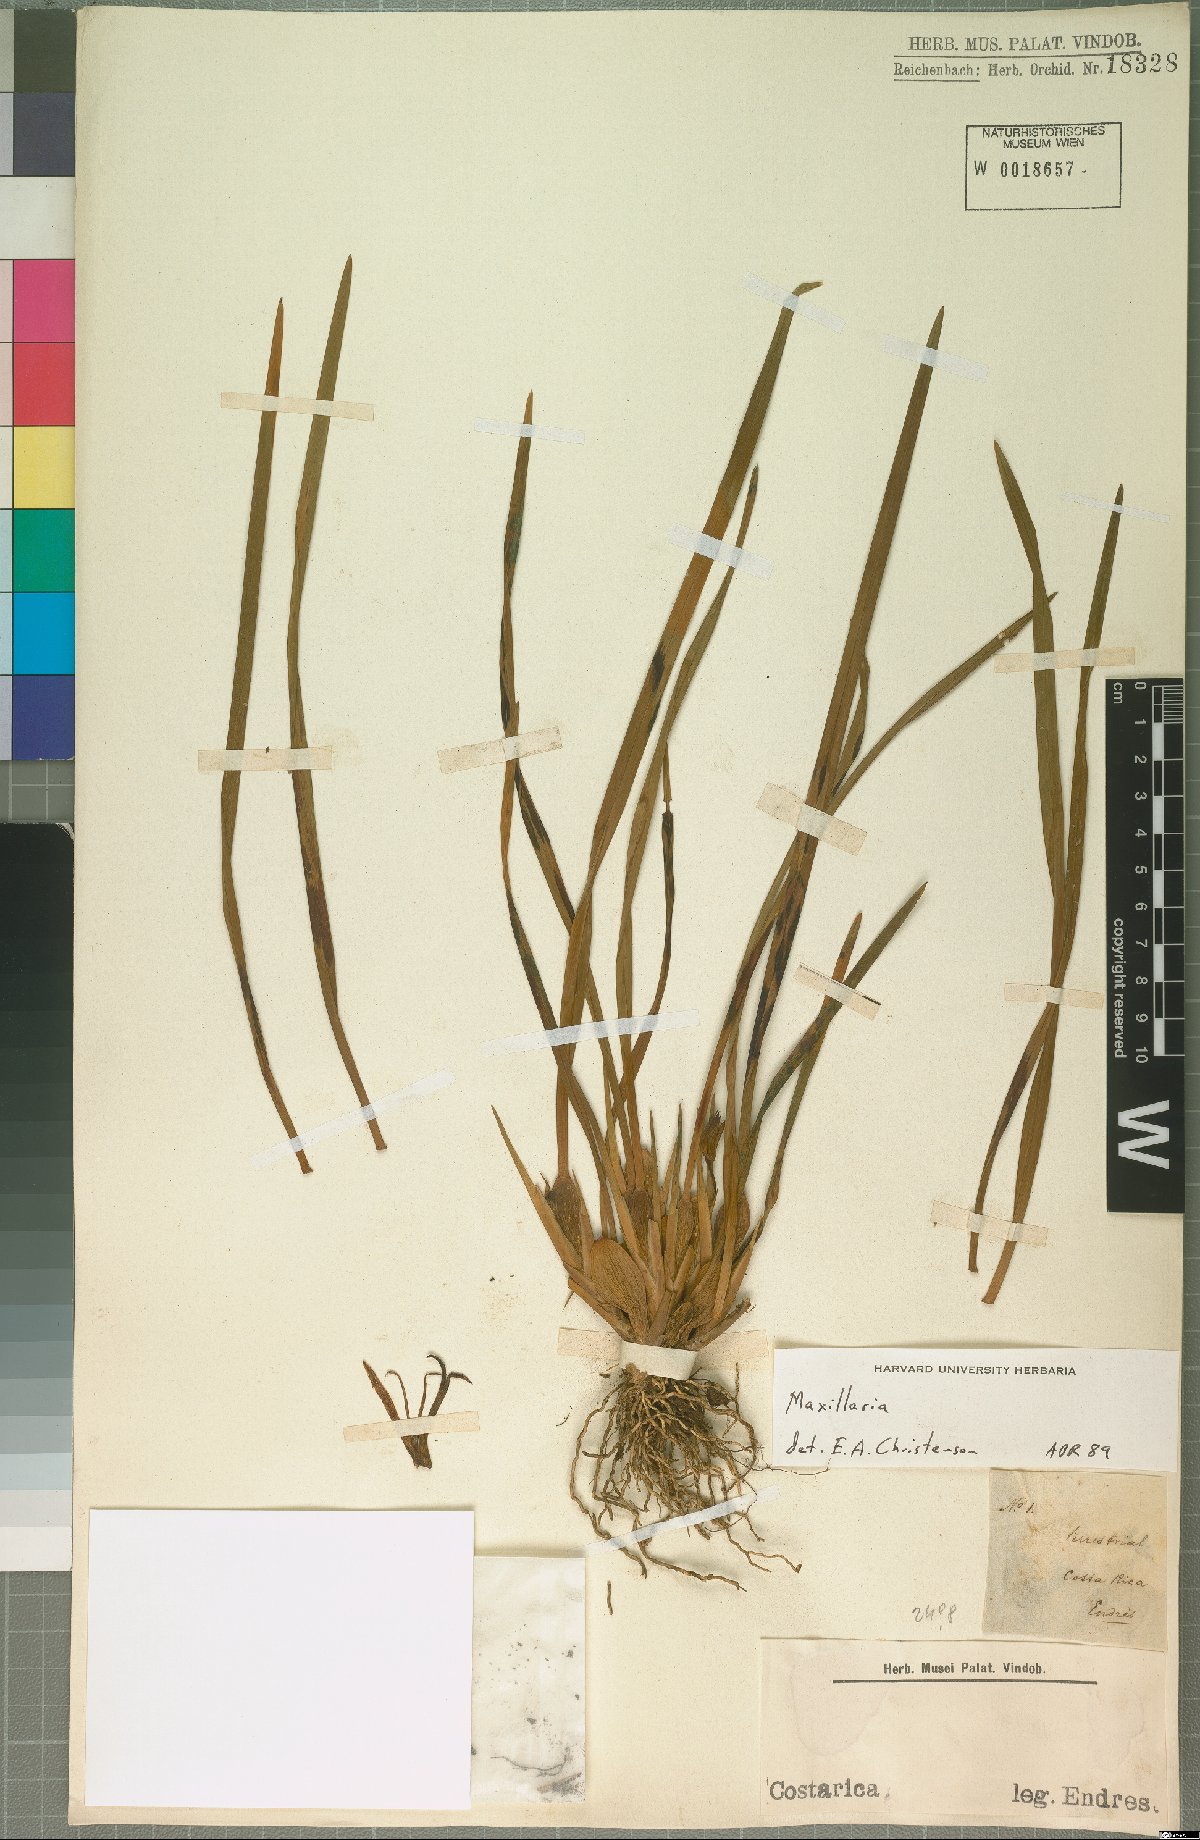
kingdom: Plantae
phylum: Tracheophyta
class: Liliopsida
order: Asparagales
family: Orchidaceae
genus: Maxillaria
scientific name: Maxillaria
